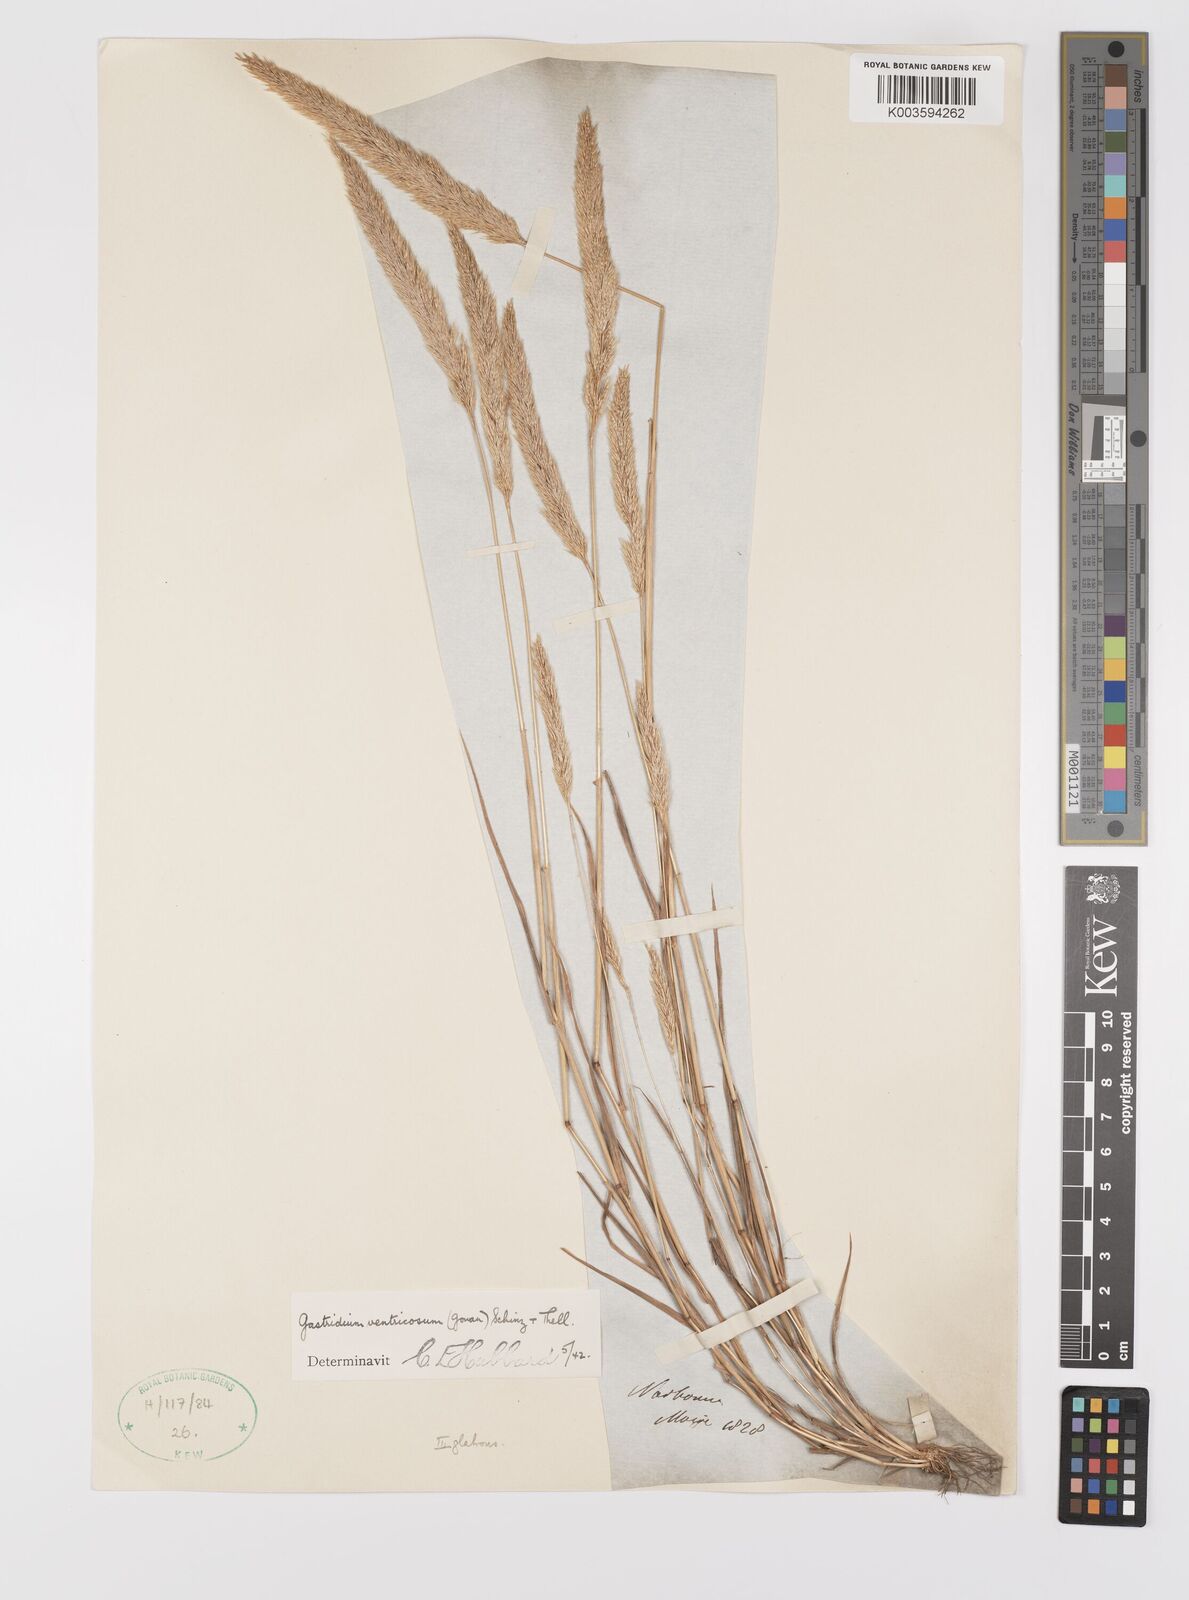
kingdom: Plantae
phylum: Tracheophyta
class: Liliopsida
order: Poales
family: Poaceae
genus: Gastridium
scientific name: Gastridium ventricosum
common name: Nit-grass
